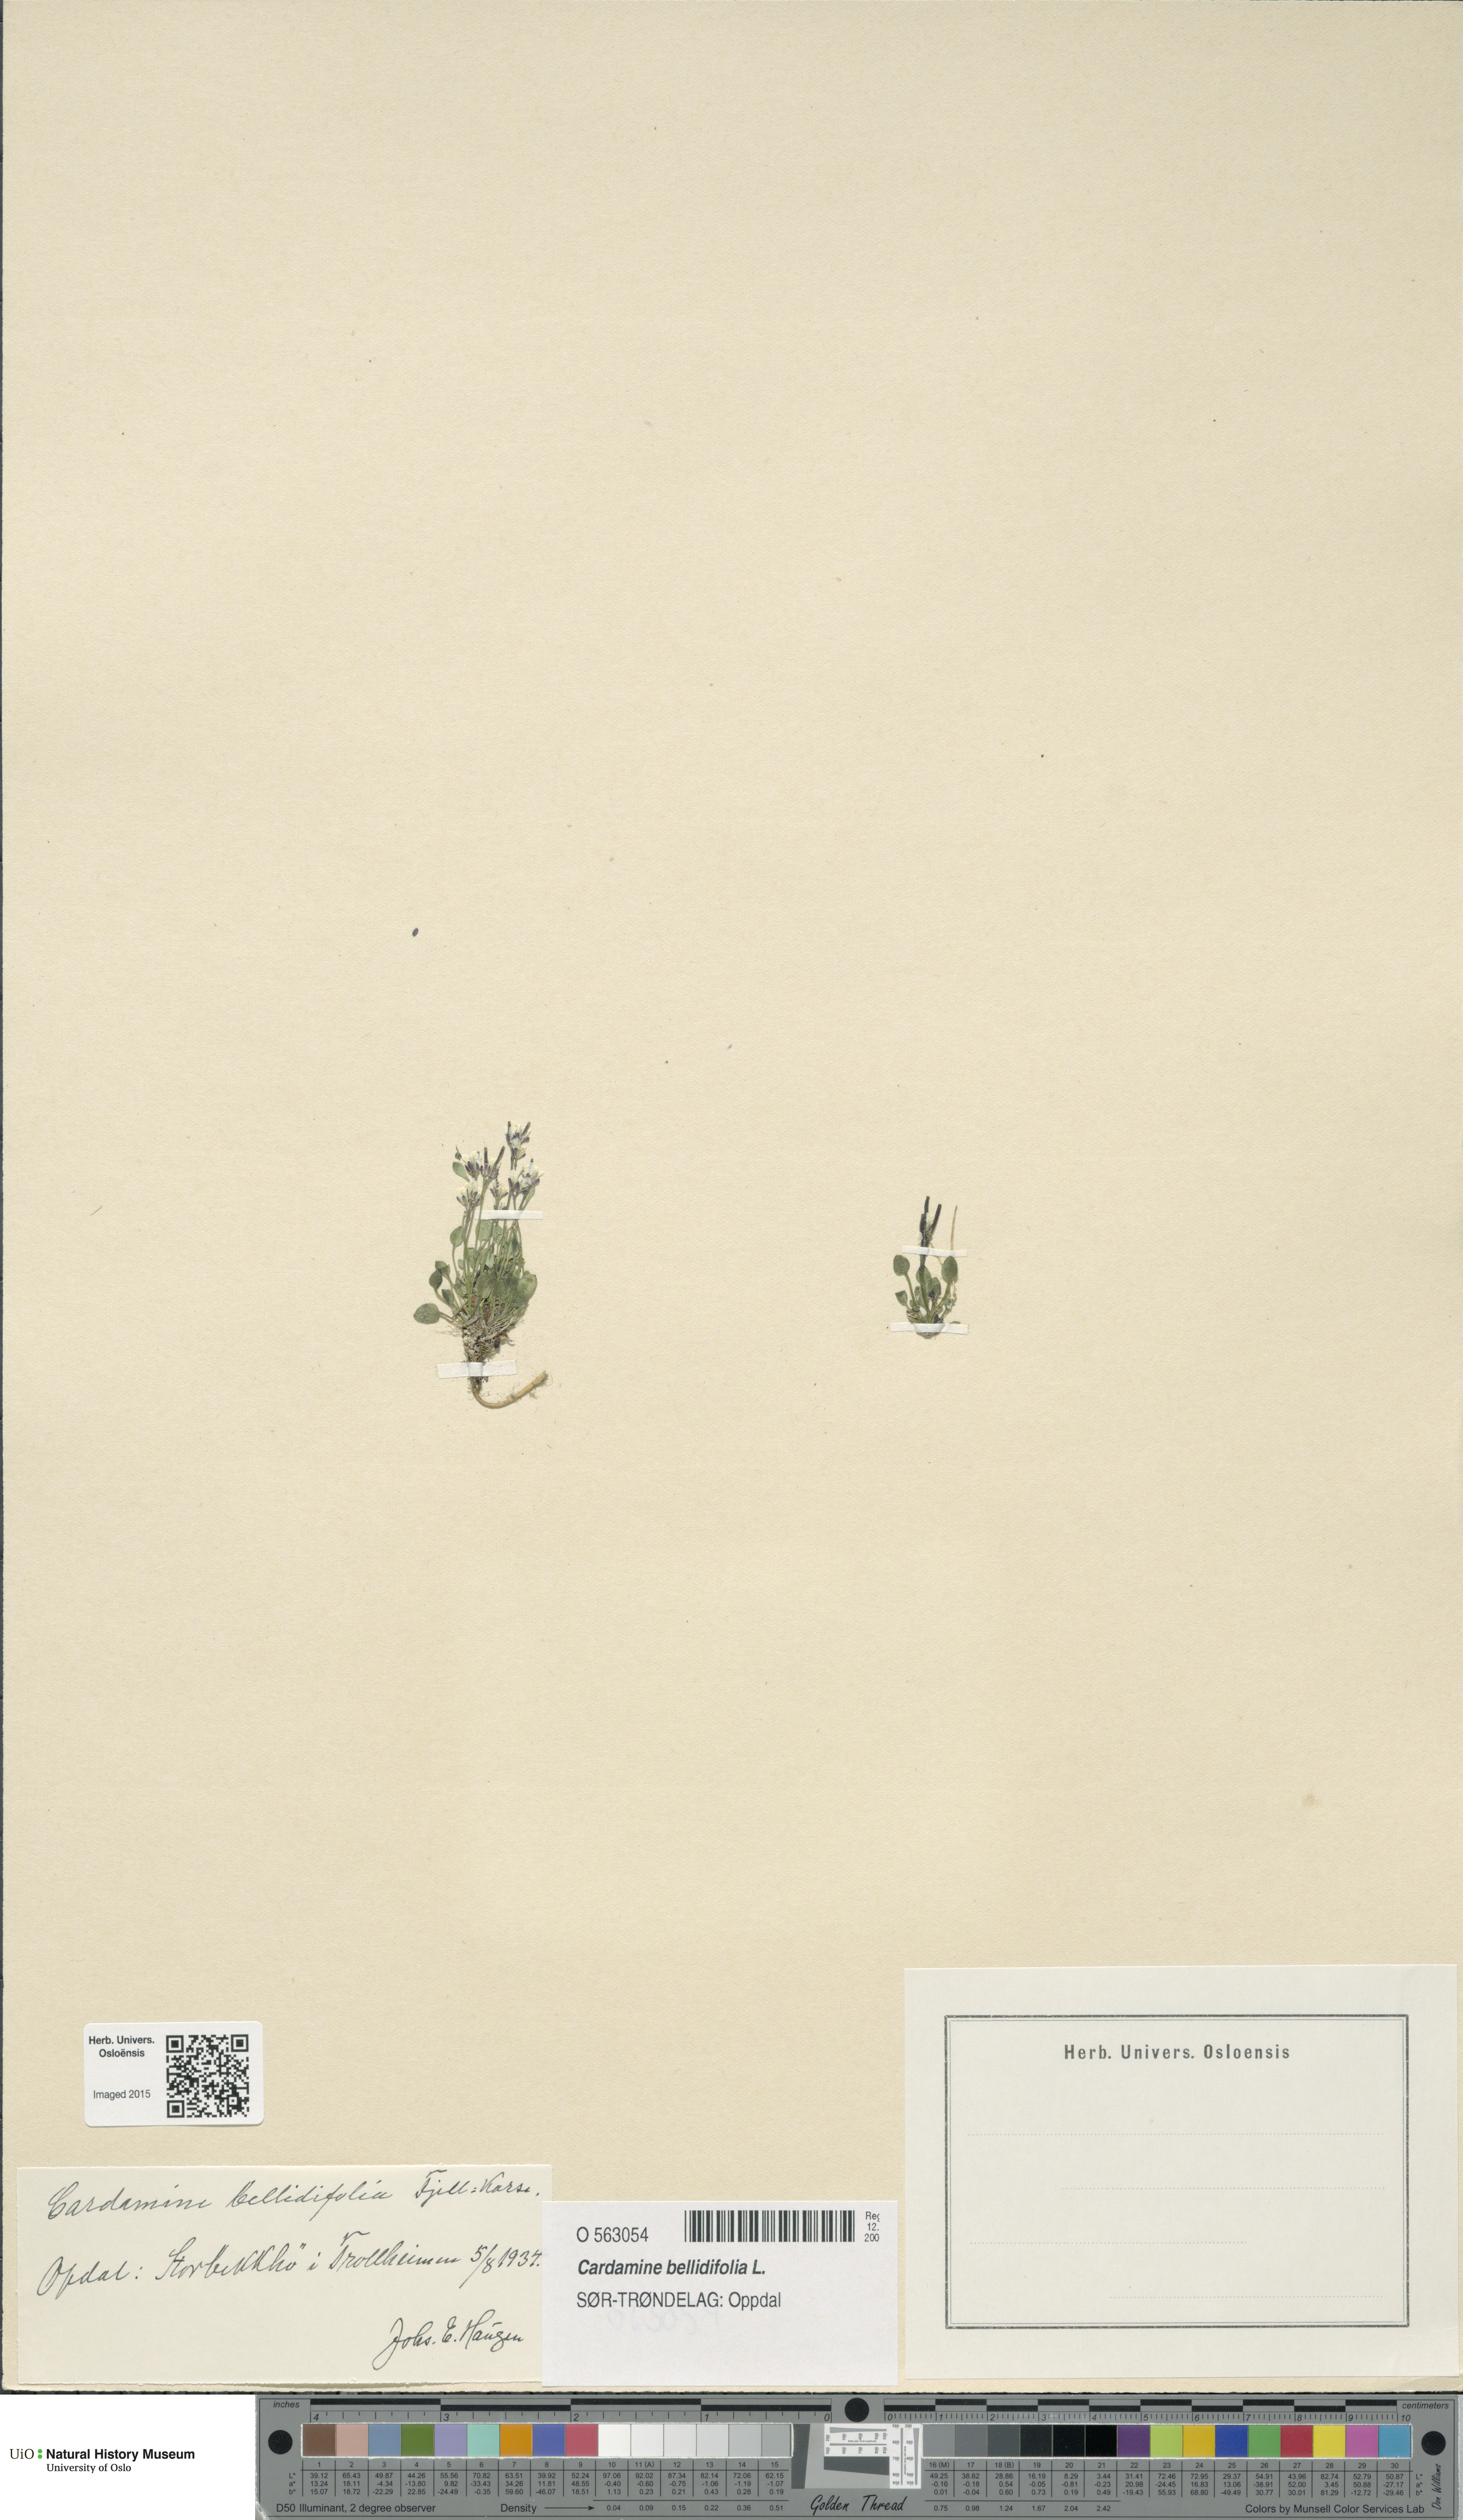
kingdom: Plantae
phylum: Tracheophyta
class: Magnoliopsida
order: Brassicales
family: Brassicaceae
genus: Cardamine
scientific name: Cardamine bellidifolia
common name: Alpine bittercress
